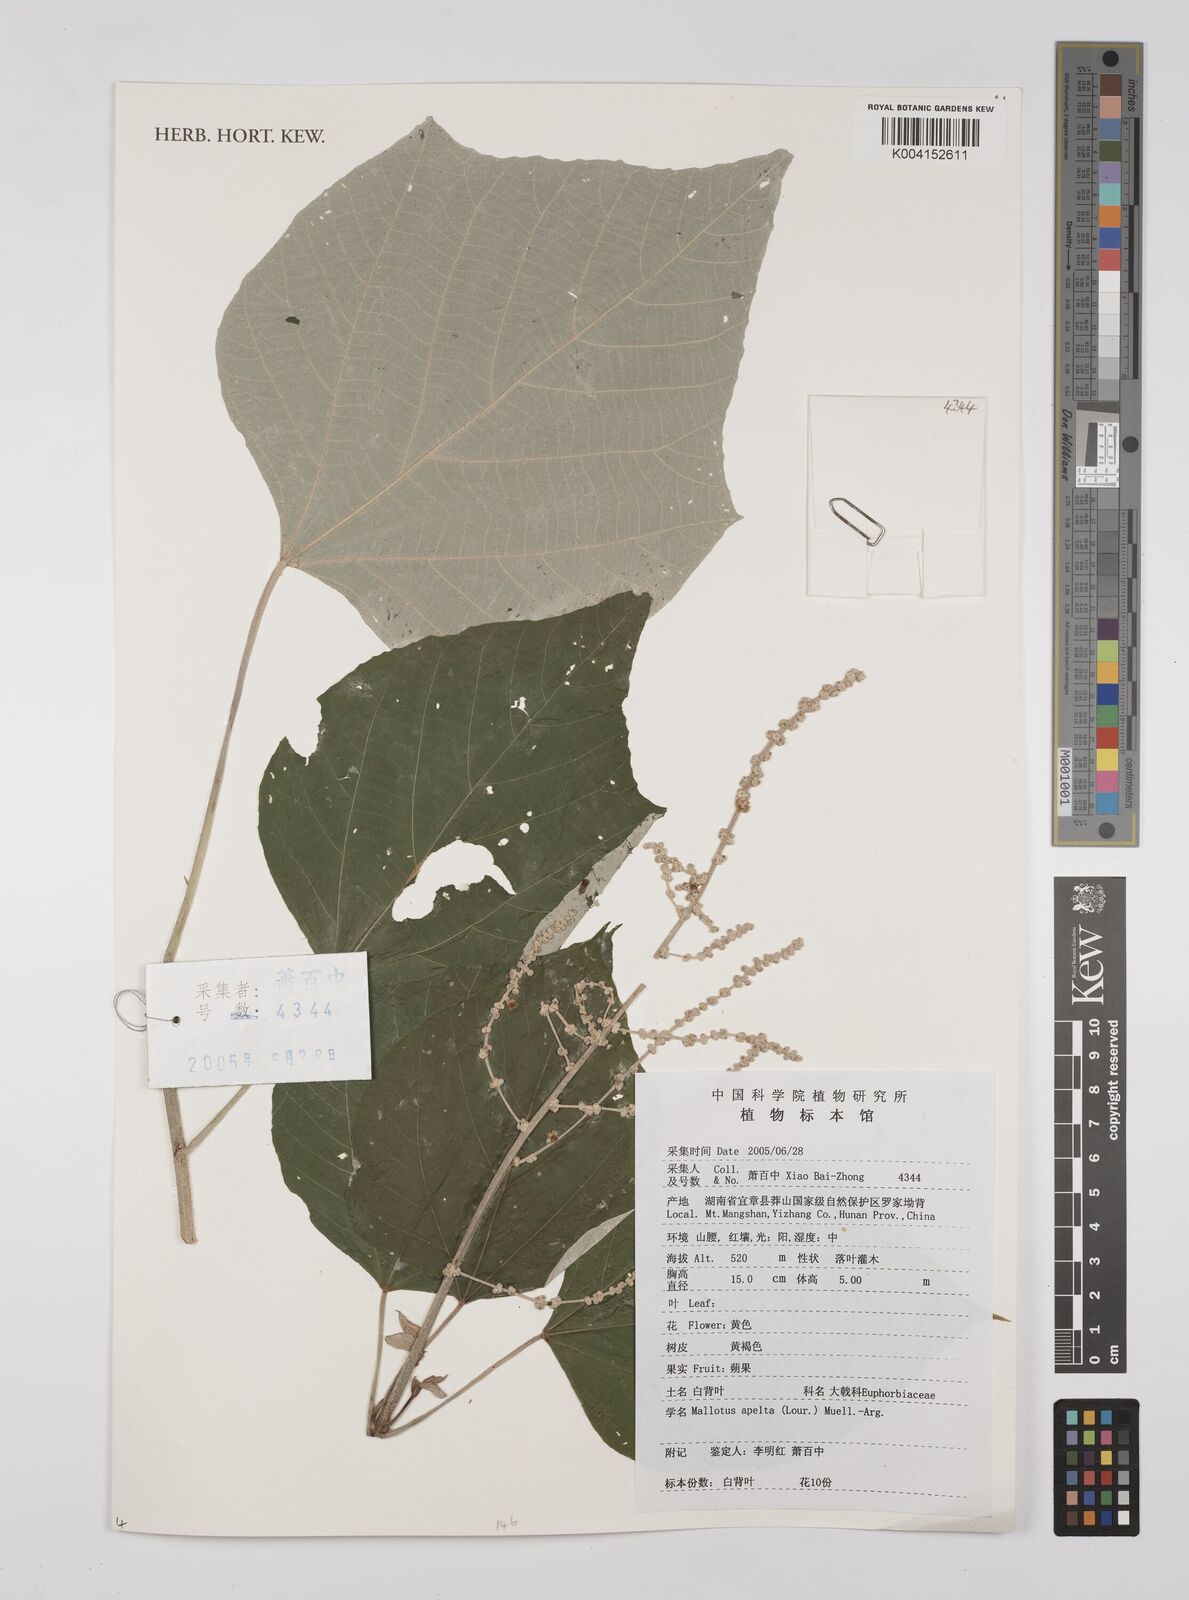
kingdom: Plantae
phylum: Tracheophyta
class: Magnoliopsida
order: Malpighiales
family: Euphorbiaceae
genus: Mallotus
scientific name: Mallotus apelta
